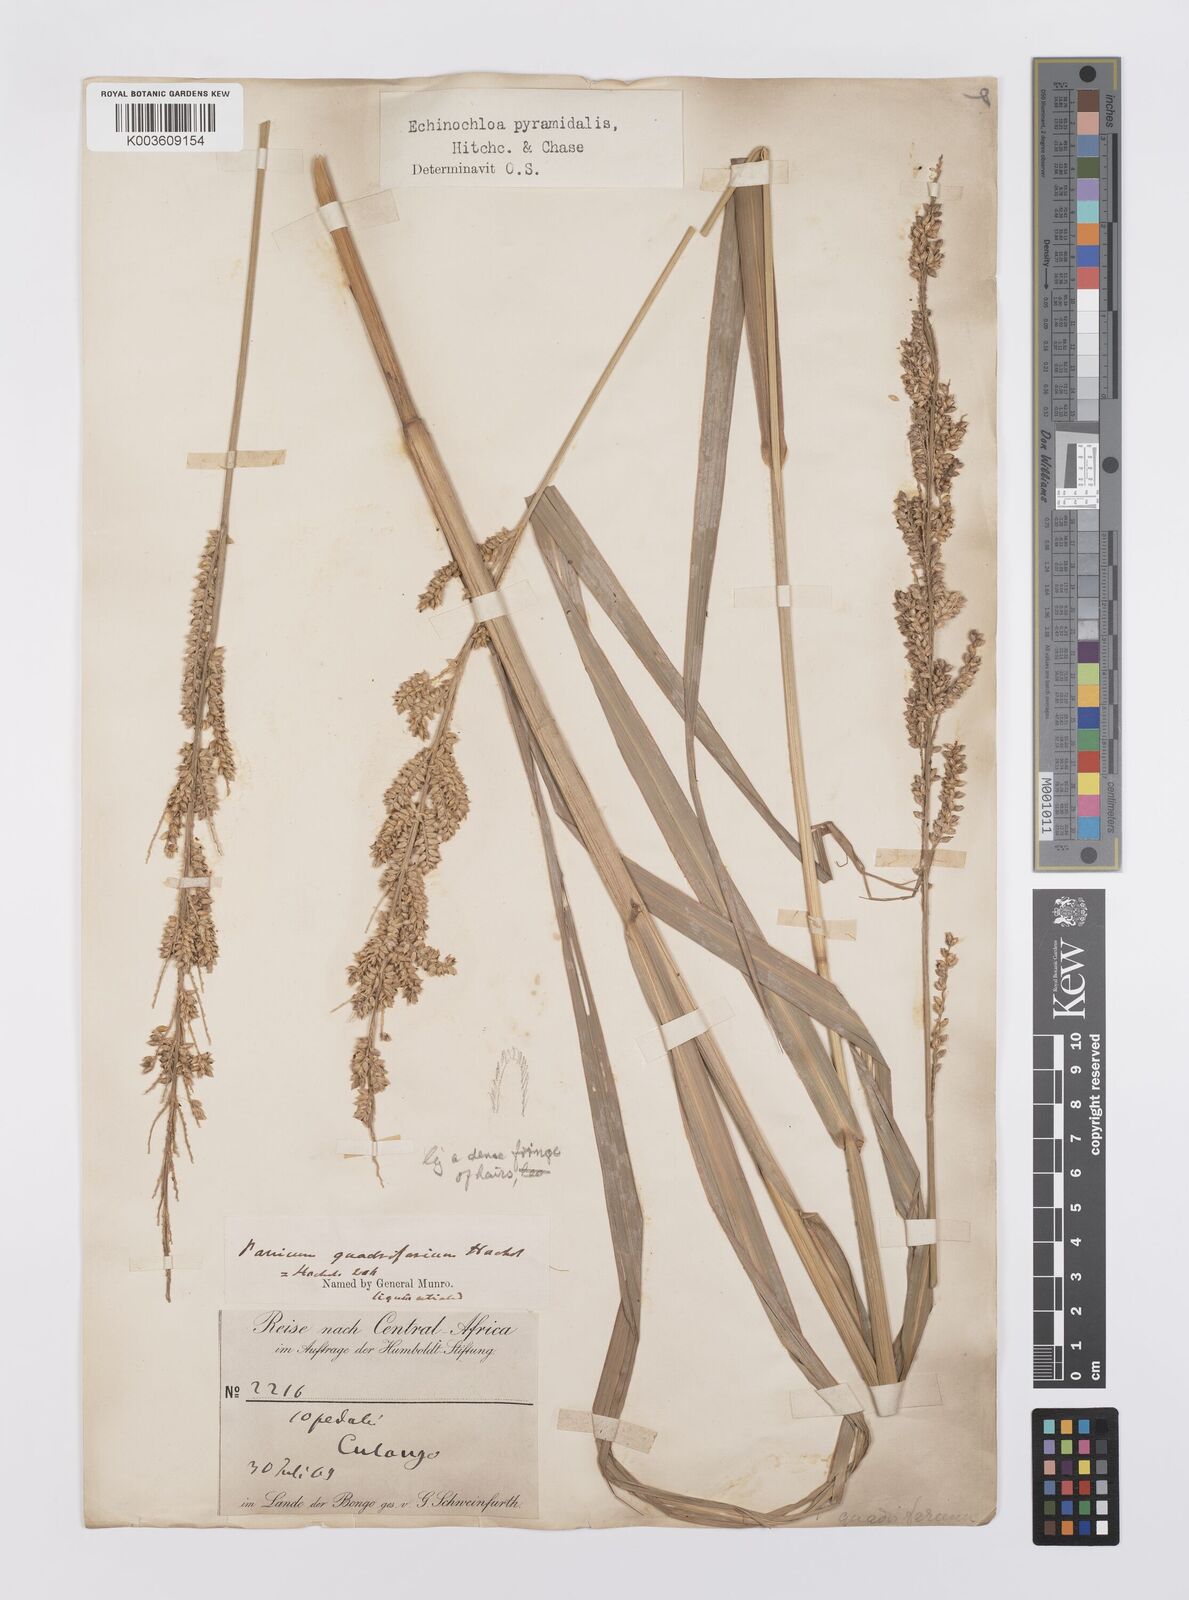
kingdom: Plantae
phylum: Tracheophyta
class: Liliopsida
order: Poales
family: Poaceae
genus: Echinochloa
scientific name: Echinochloa pyramidalis
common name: Antelope grass
